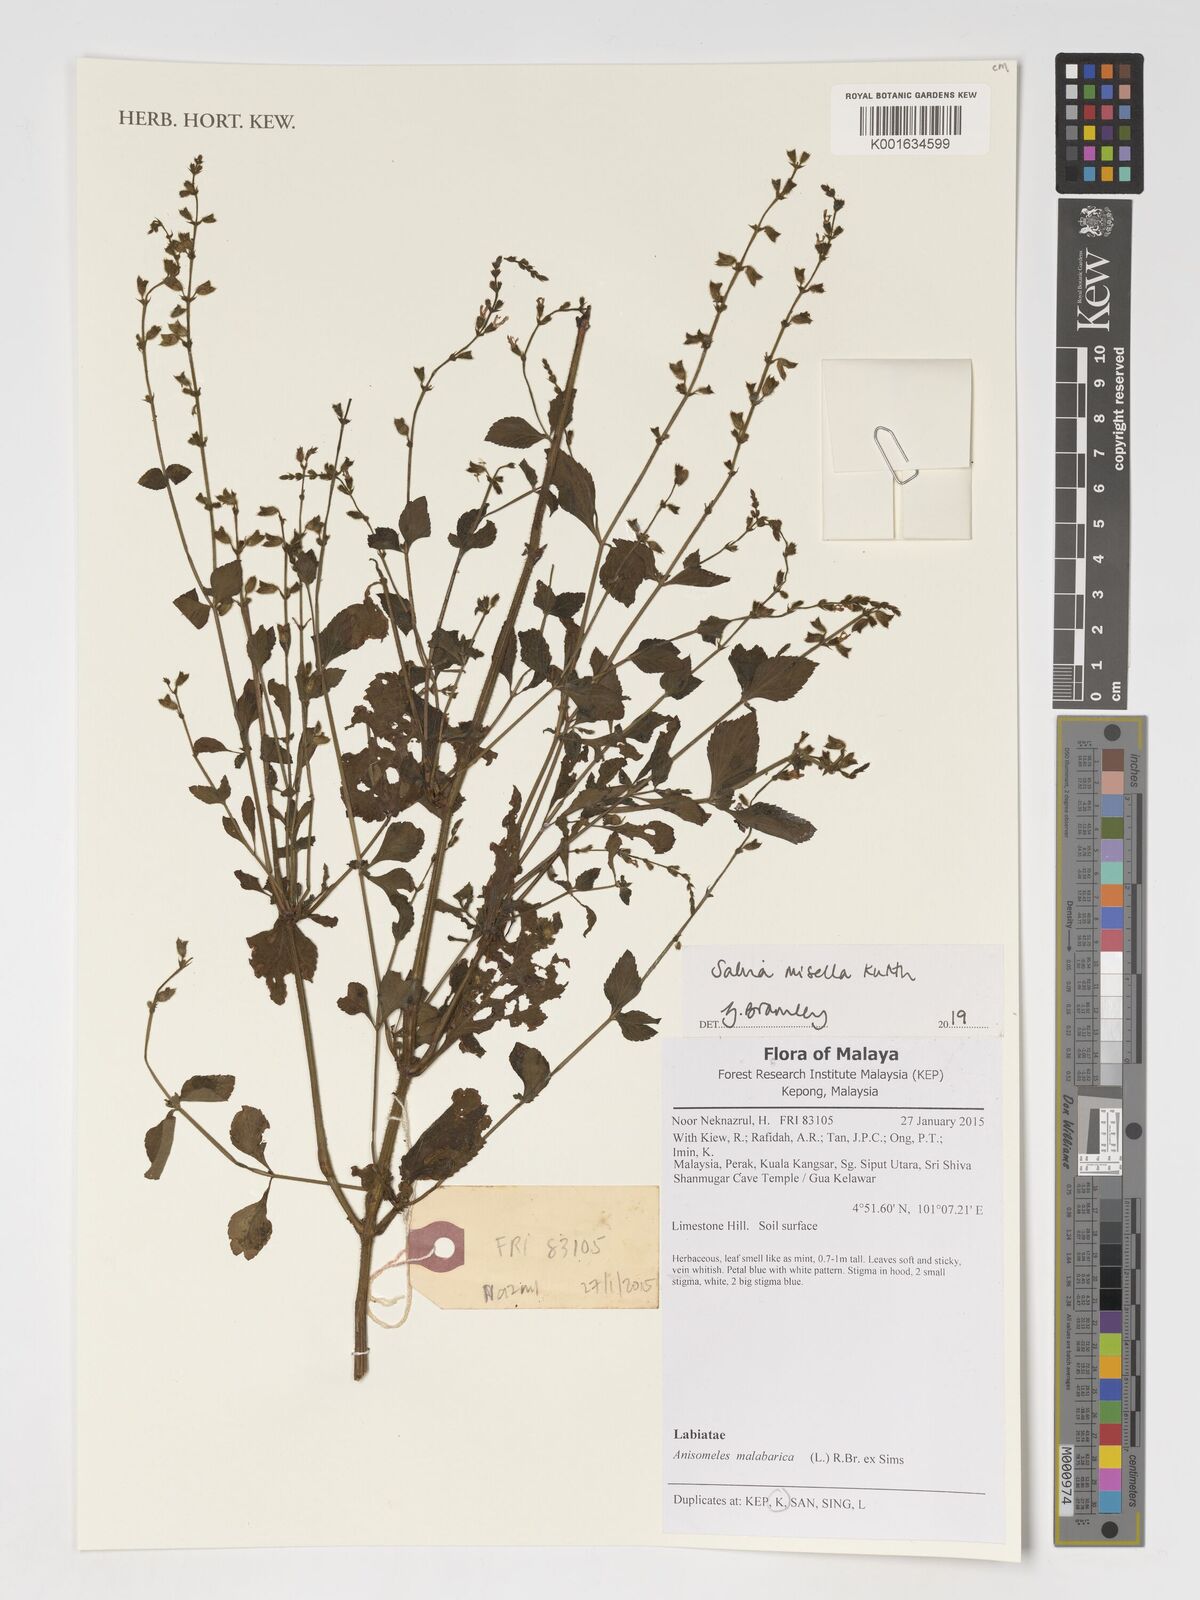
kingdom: Plantae
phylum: Tracheophyta
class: Magnoliopsida
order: Lamiales
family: Lamiaceae
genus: Salvia
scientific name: Salvia misella
